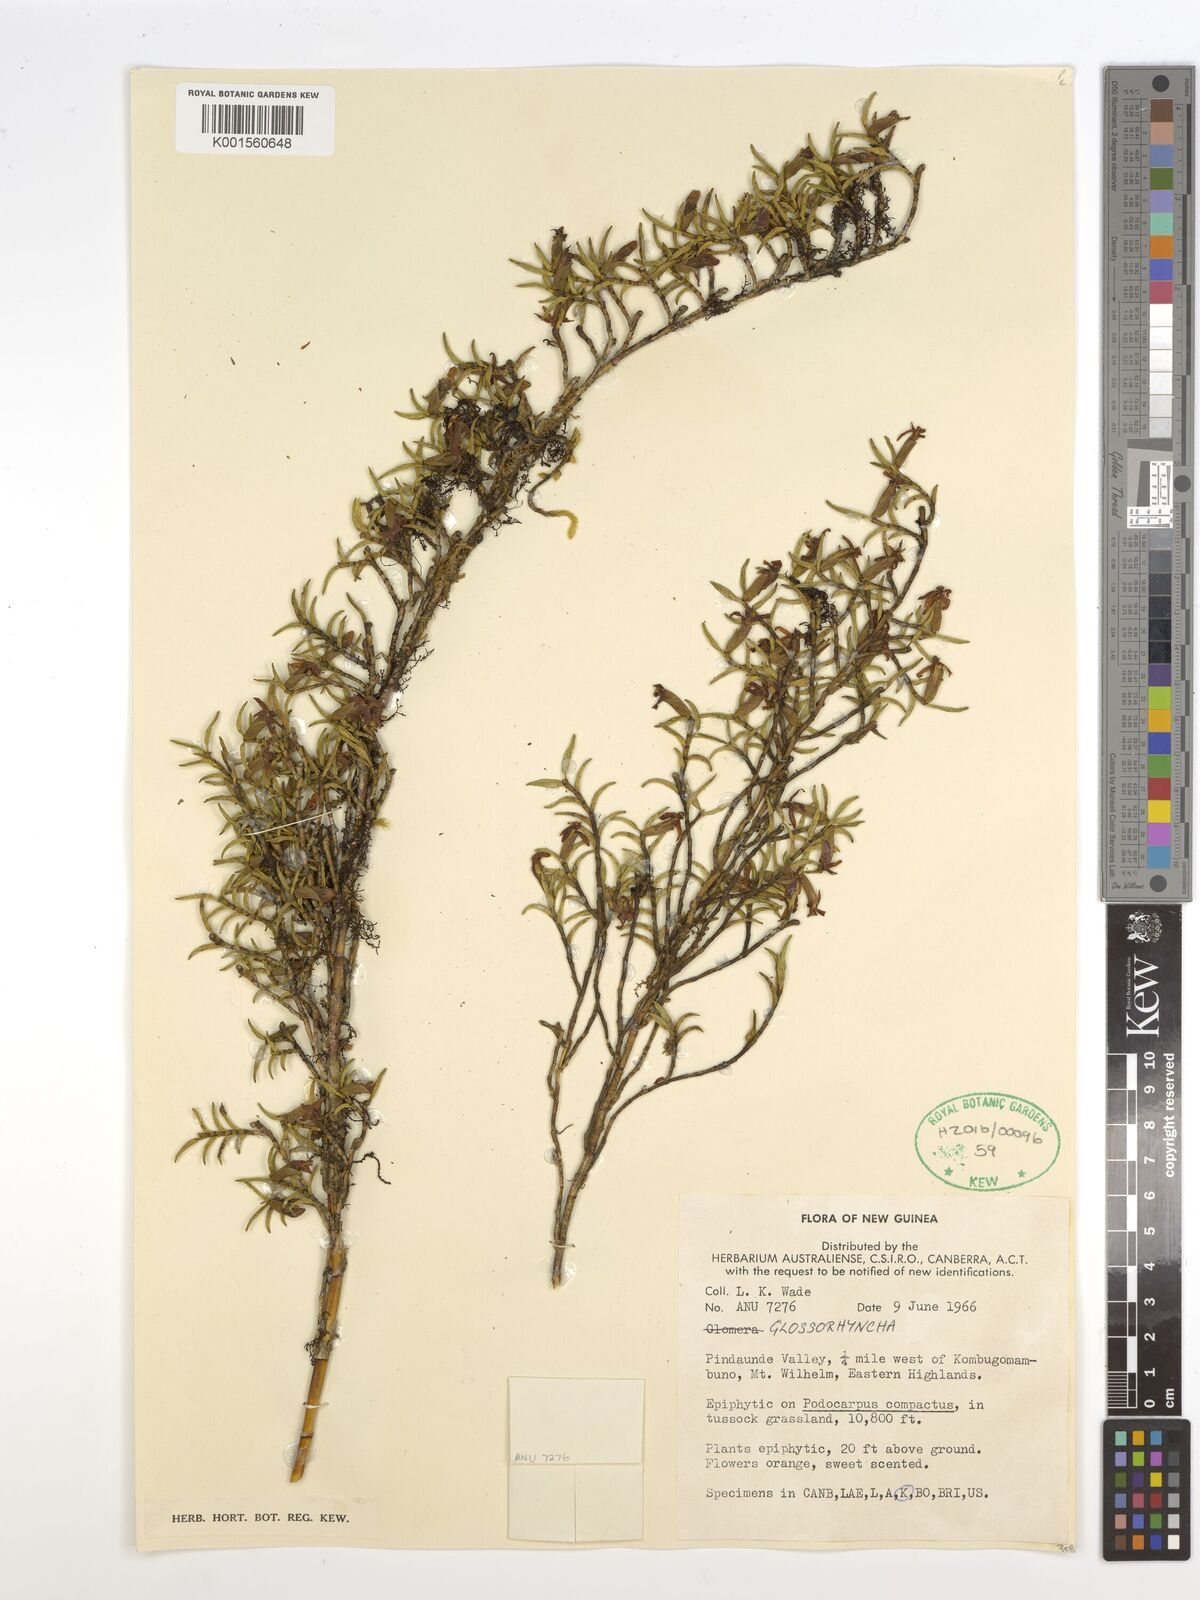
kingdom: Plantae
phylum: Tracheophyta
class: Liliopsida
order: Asparagales
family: Orchidaceae
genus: Glomera
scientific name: Glomera
